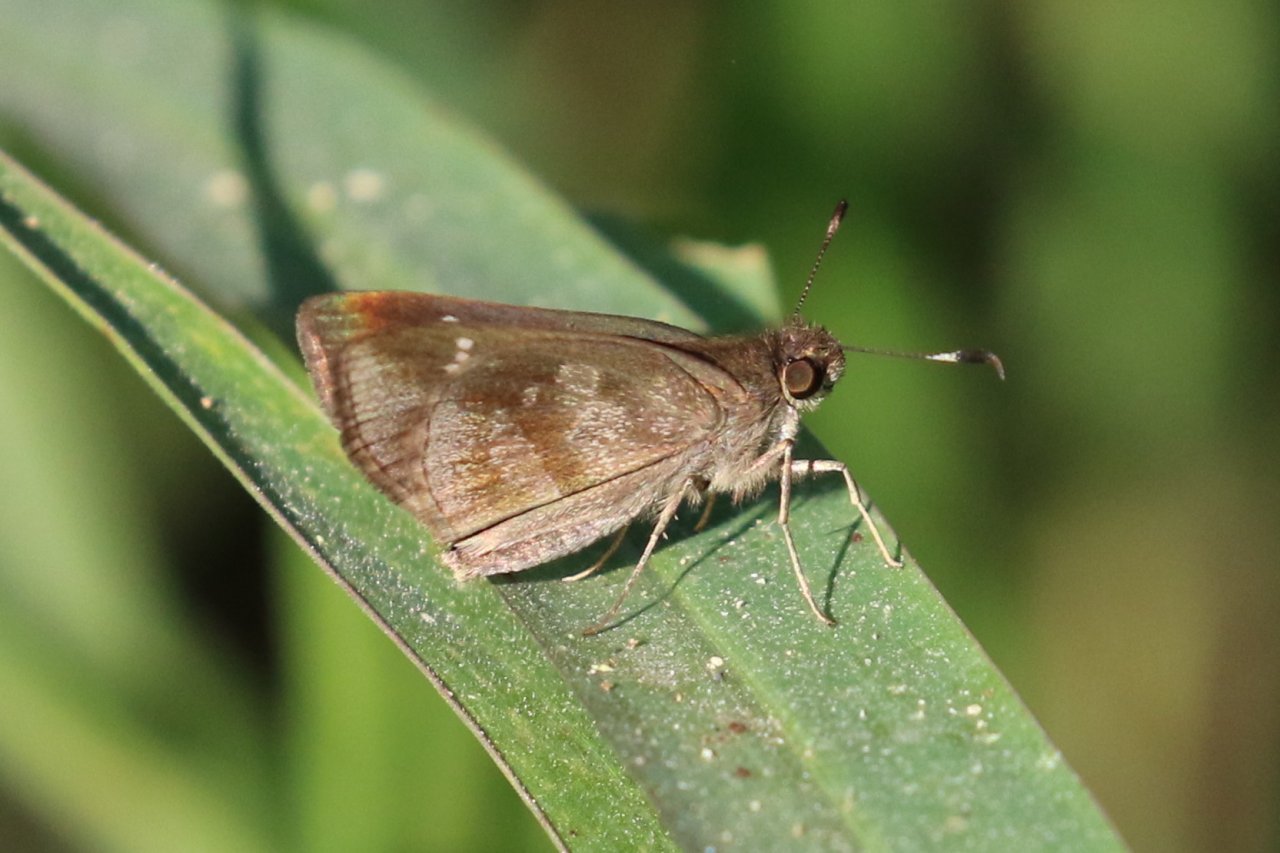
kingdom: Animalia
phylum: Arthropoda
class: Insecta
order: Lepidoptera
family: Hesperiidae
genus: Cymaenes
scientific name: Cymaenes odilia
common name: Fawn-spotted Skipper
